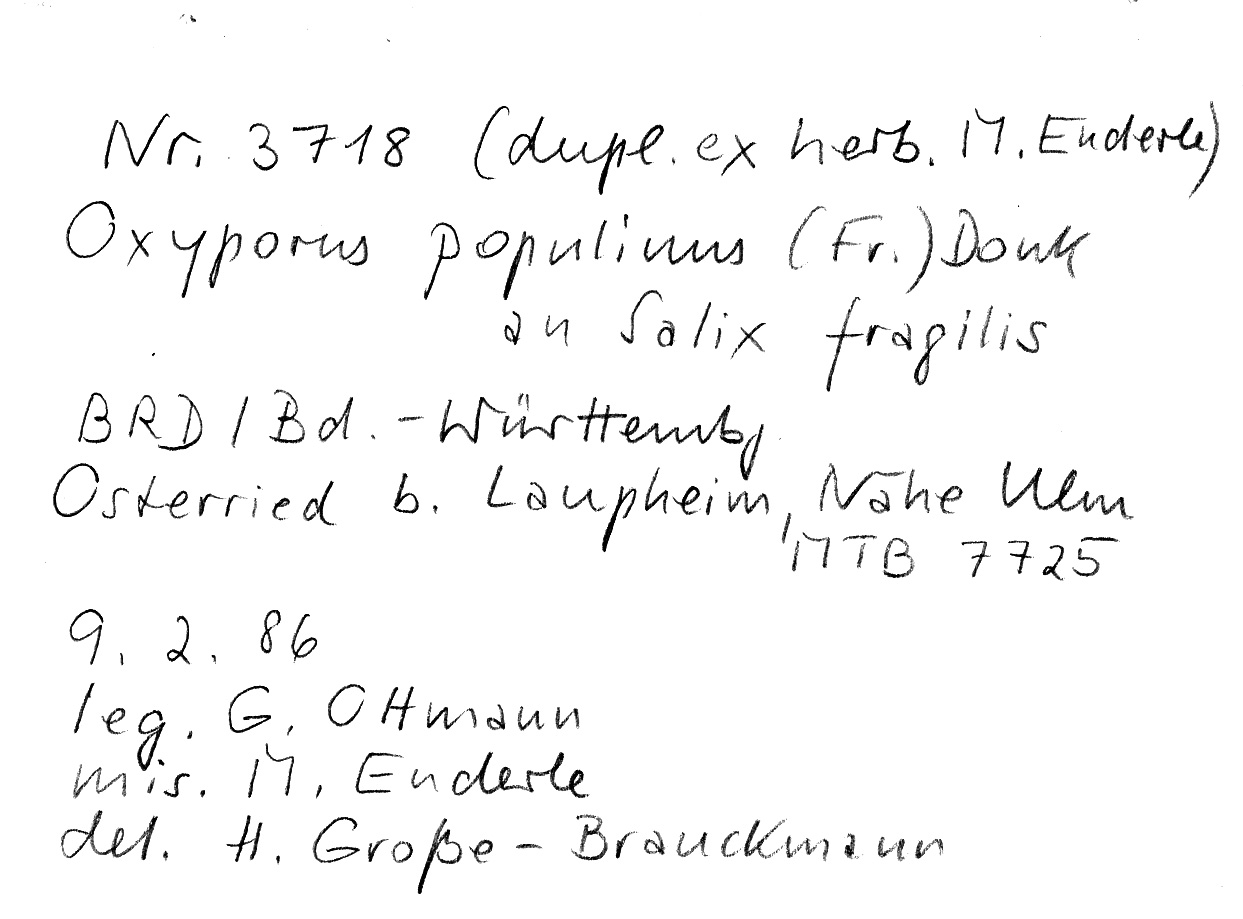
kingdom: Plantae
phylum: Tracheophyta
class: Magnoliopsida
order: Malpighiales
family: Salicaceae
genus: Salix
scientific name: Salix fragilis
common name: Crack willow
